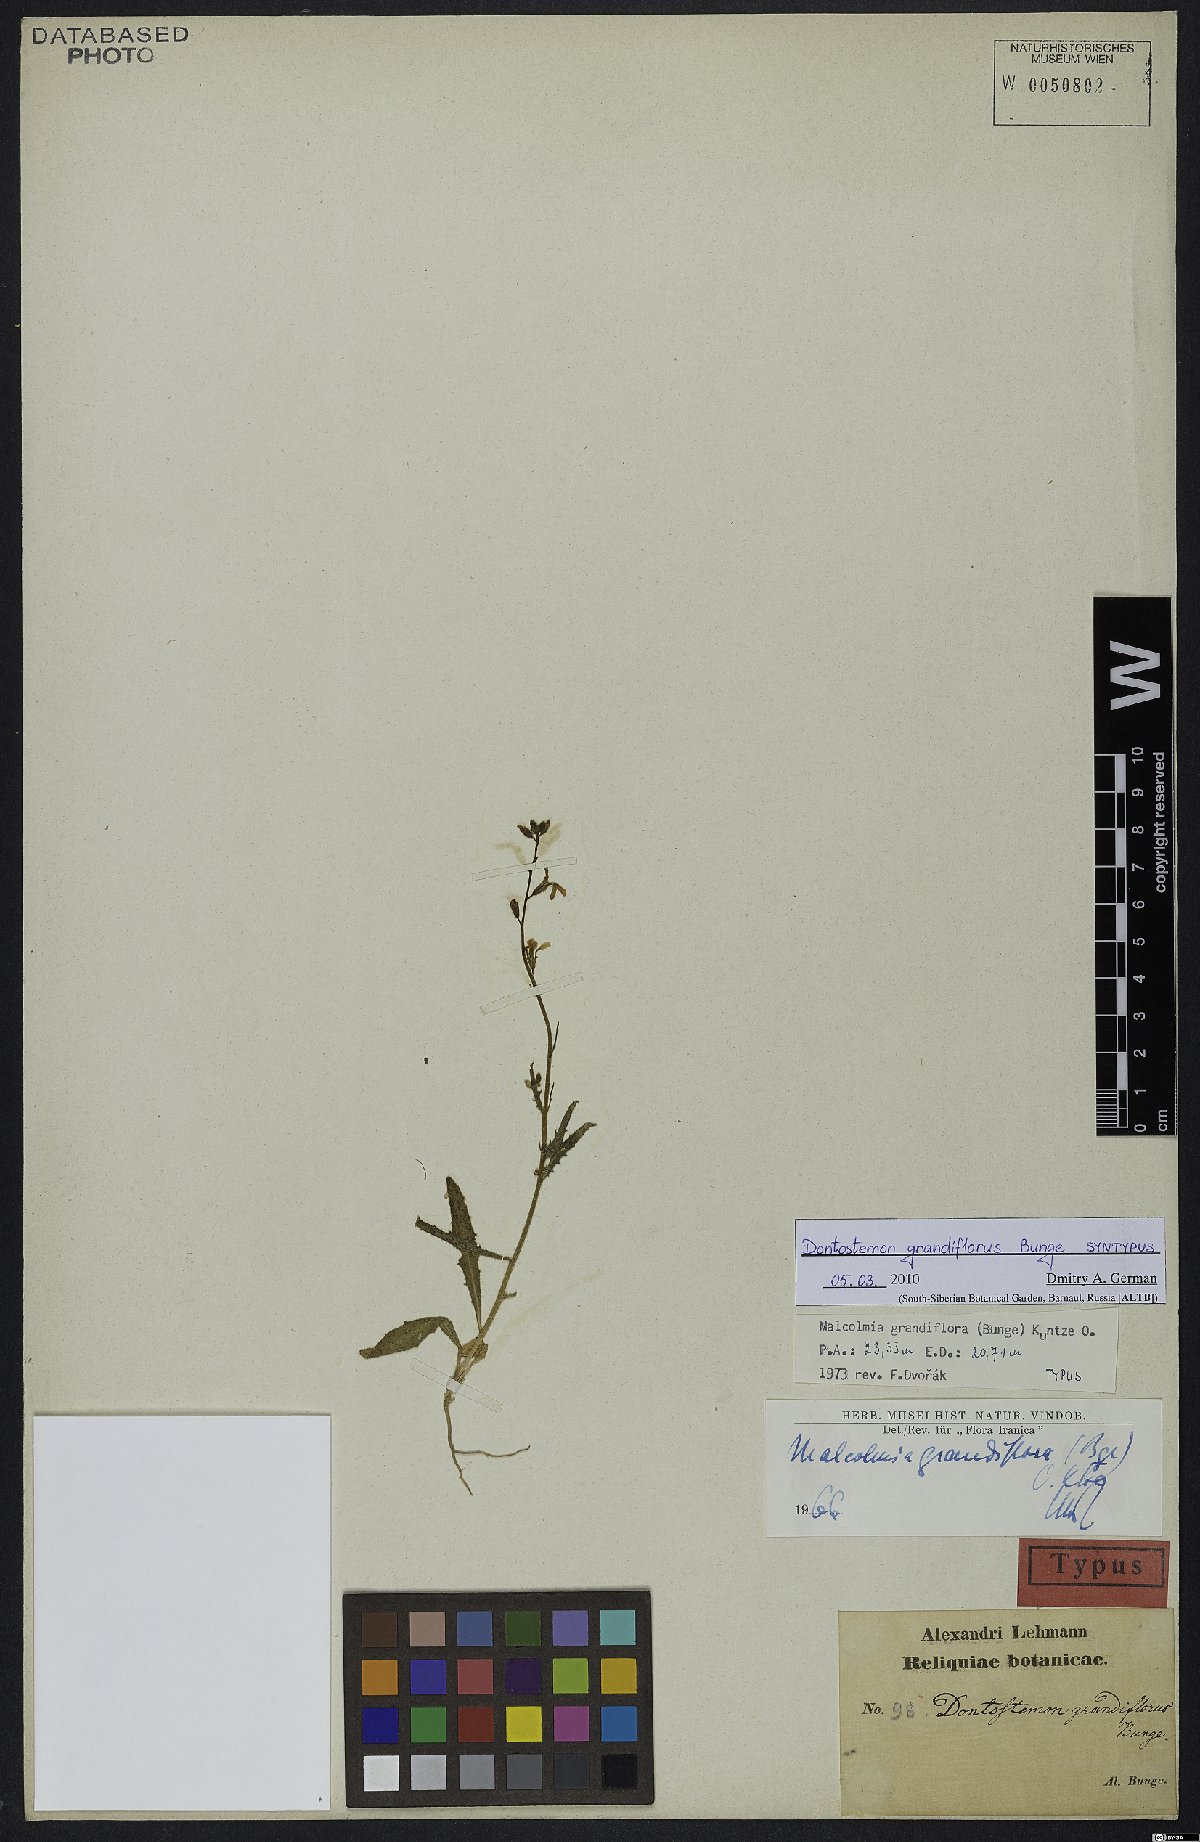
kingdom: Plantae
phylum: Tracheophyta
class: Magnoliopsida
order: Brassicales
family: Brassicaceae
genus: Strigosella
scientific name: Strigosella grandiflora
